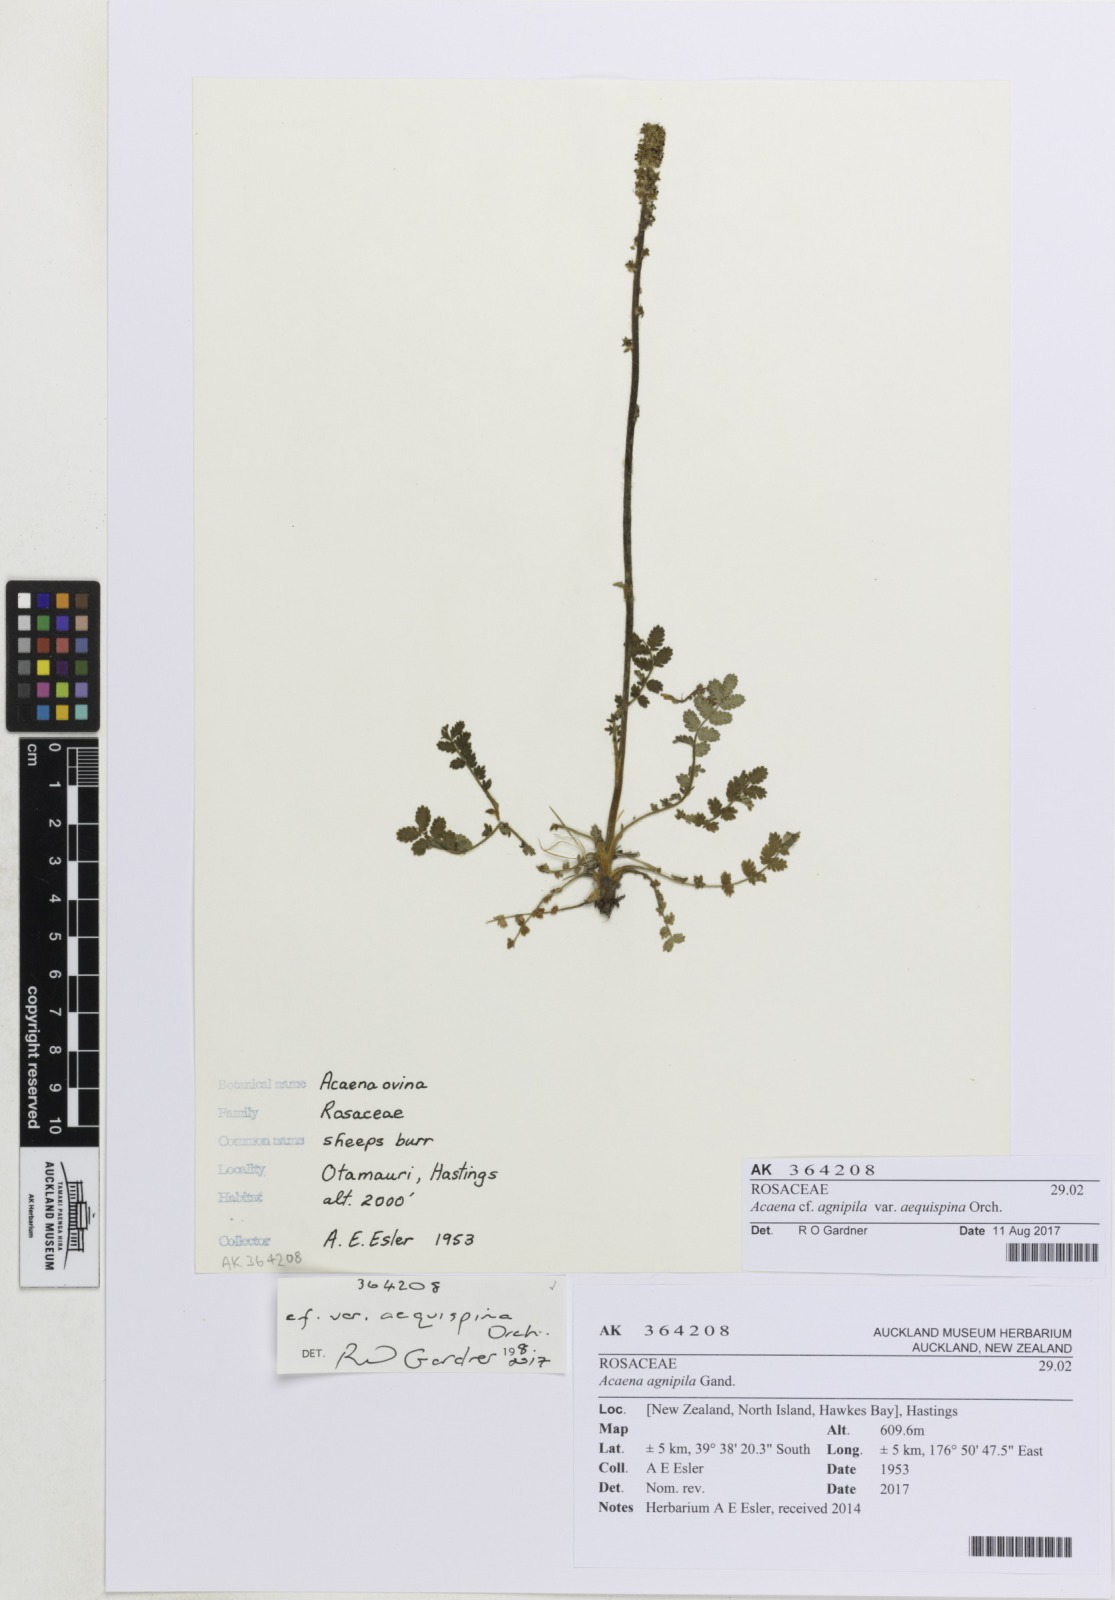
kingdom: Plantae
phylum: Tracheophyta
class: Magnoliopsida
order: Rosales
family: Rosaceae
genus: Acaena
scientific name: Acaena agnipila
